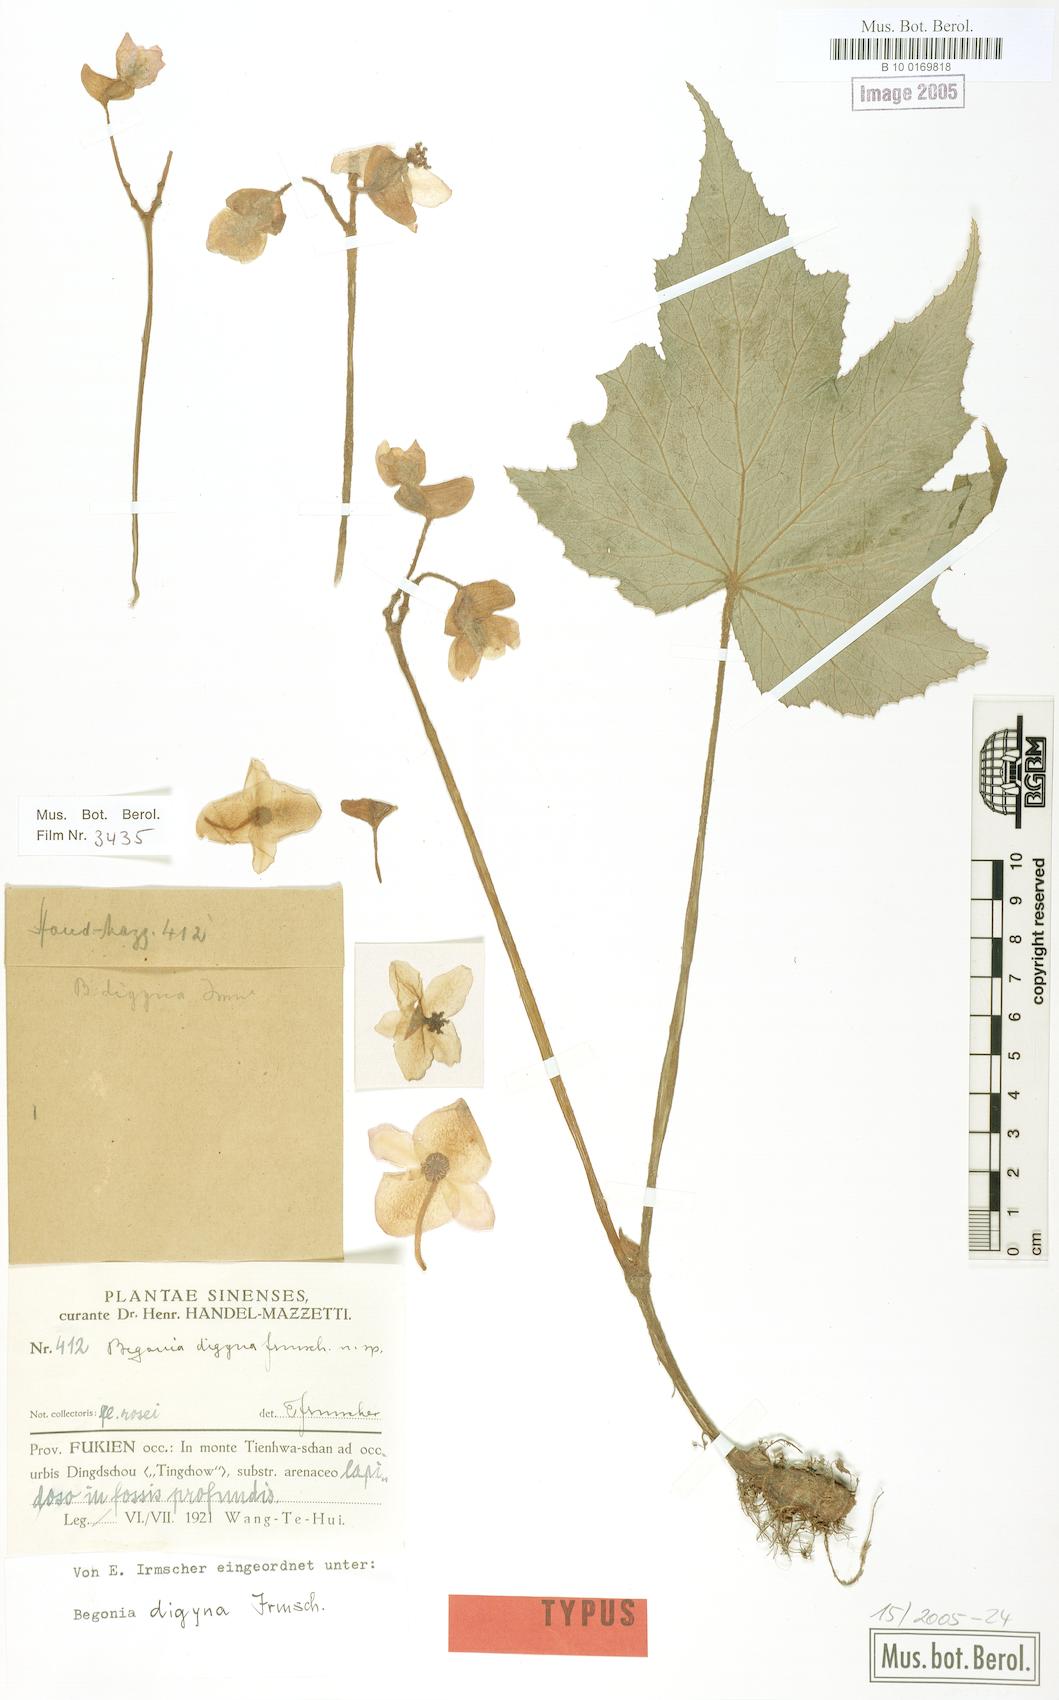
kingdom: Plantae
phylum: Tracheophyta
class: Magnoliopsida
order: Cucurbitales
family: Begoniaceae
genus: Begonia
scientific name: Begonia digyna
